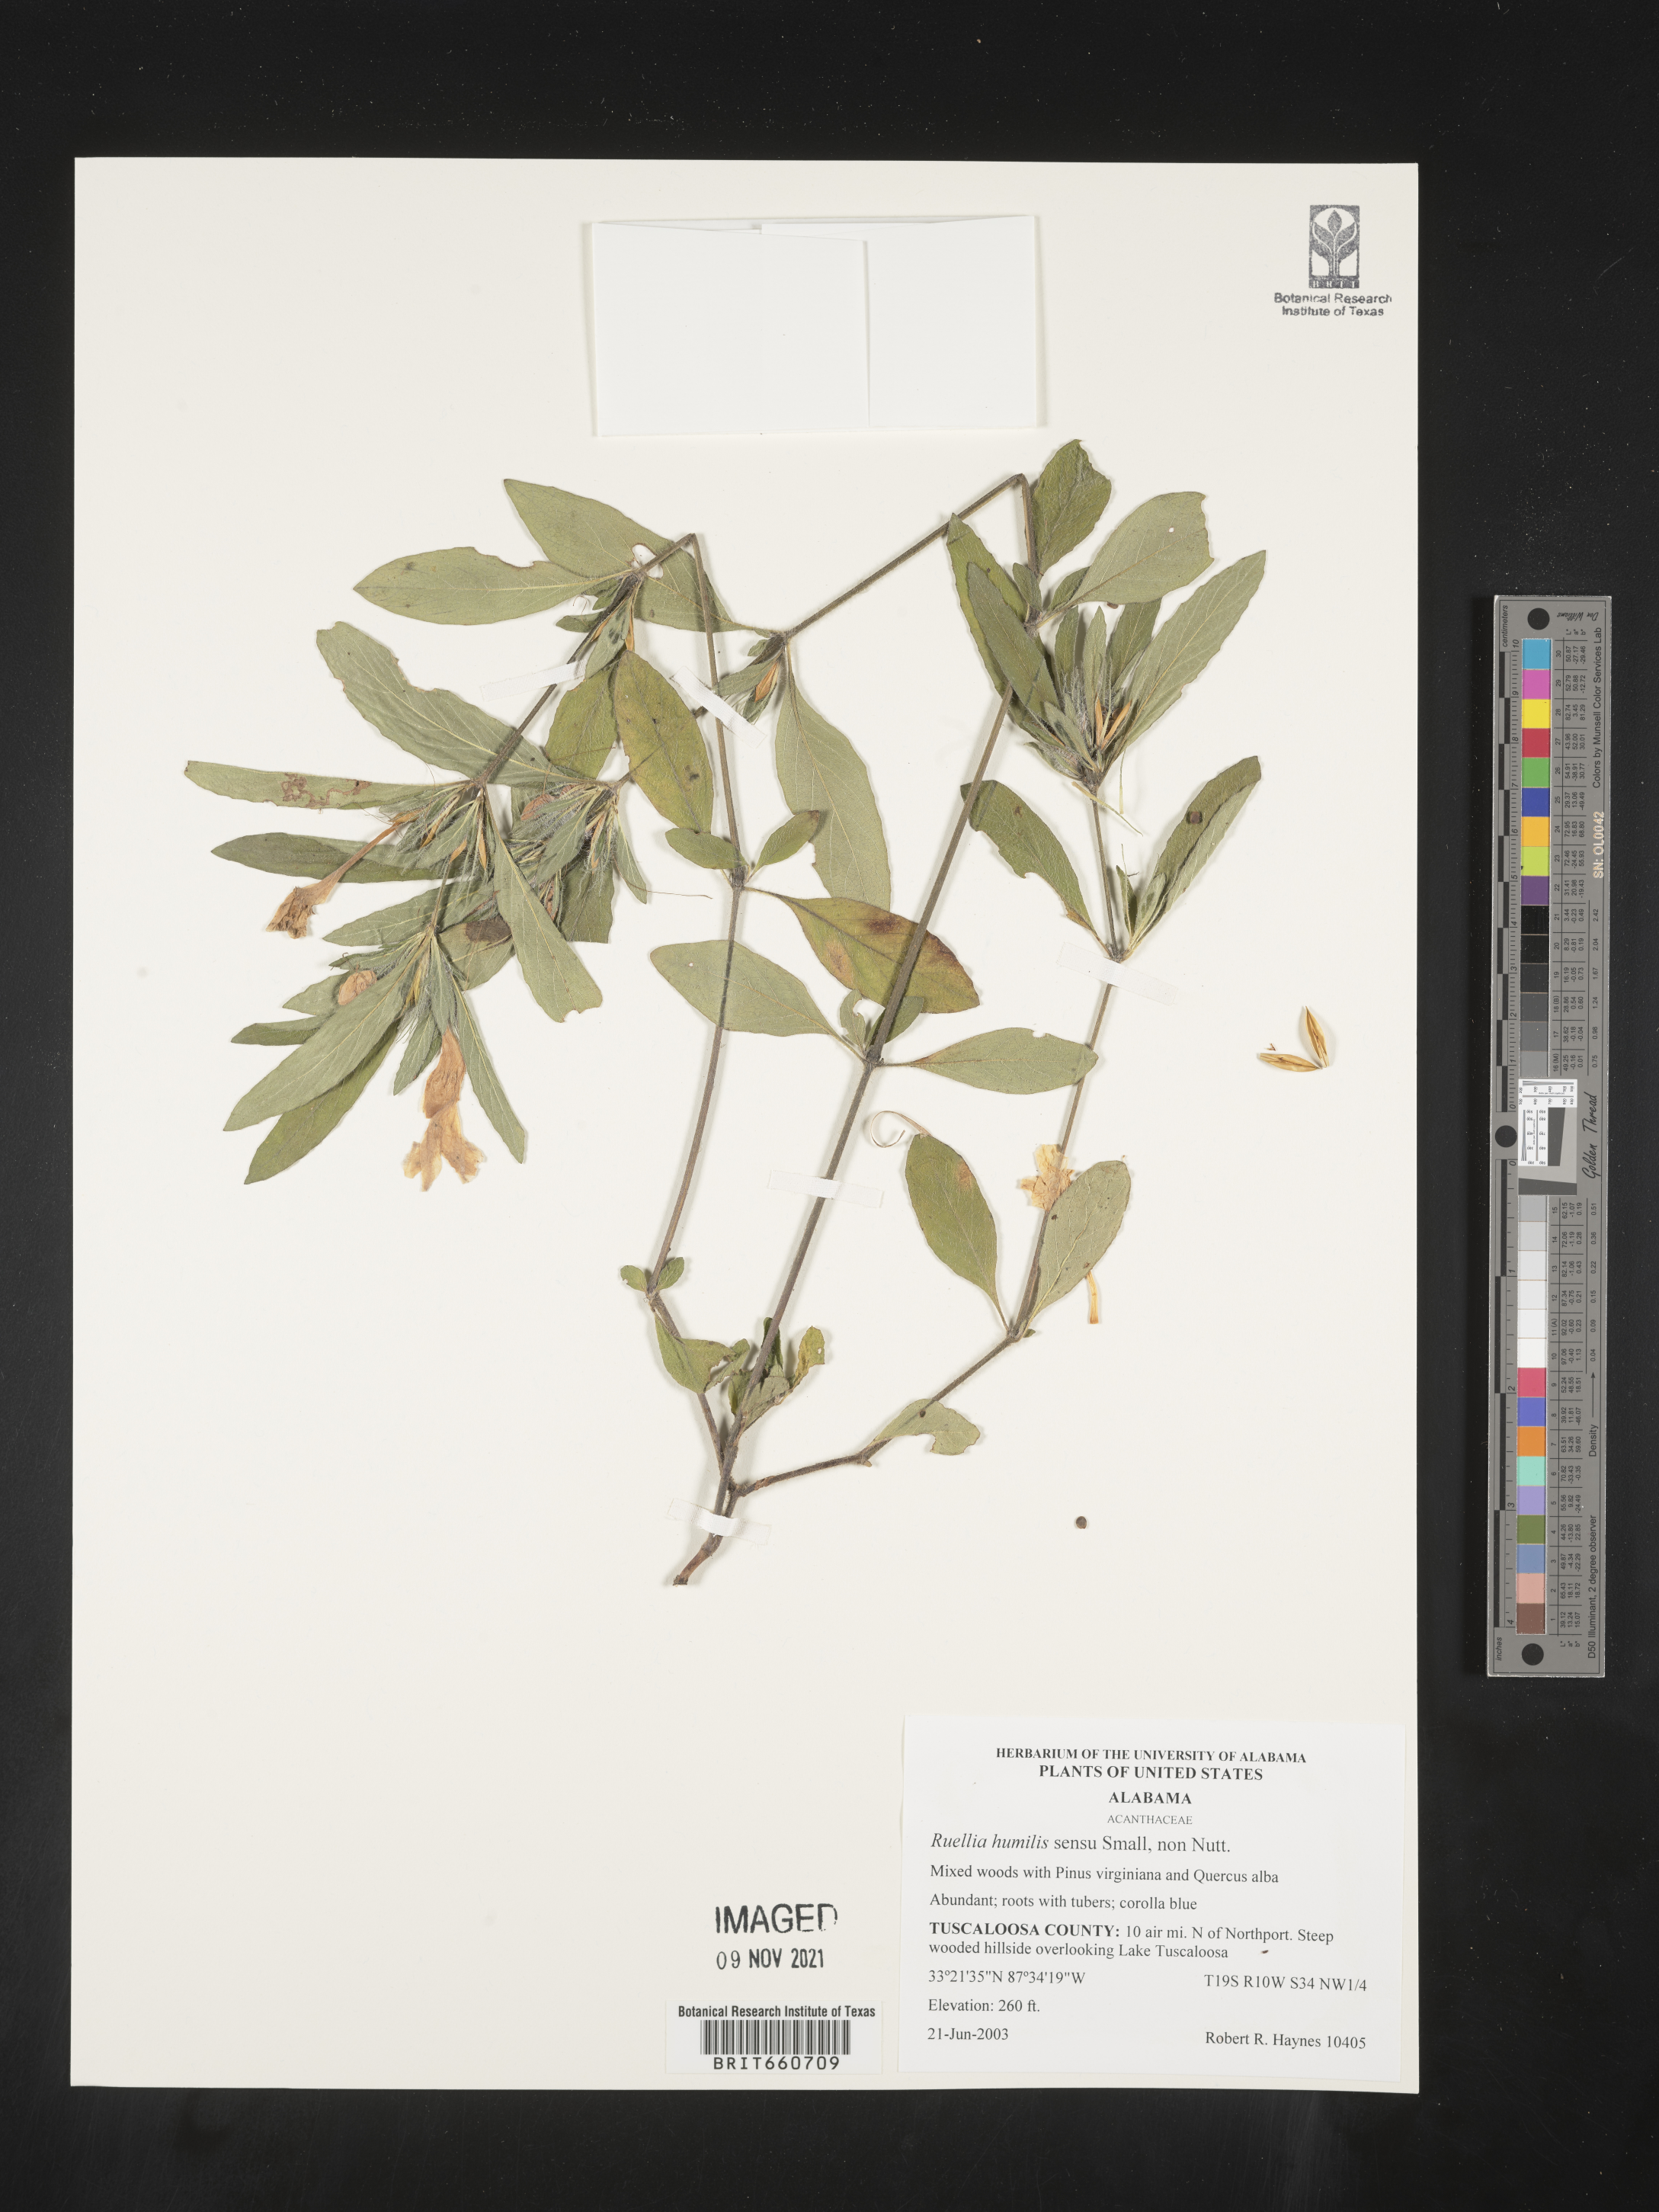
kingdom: Plantae
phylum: Tracheophyta
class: Magnoliopsida
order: Lamiales
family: Acanthaceae
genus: Ruellia
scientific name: Ruellia humilis
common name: Fringe-leaf ruellia
